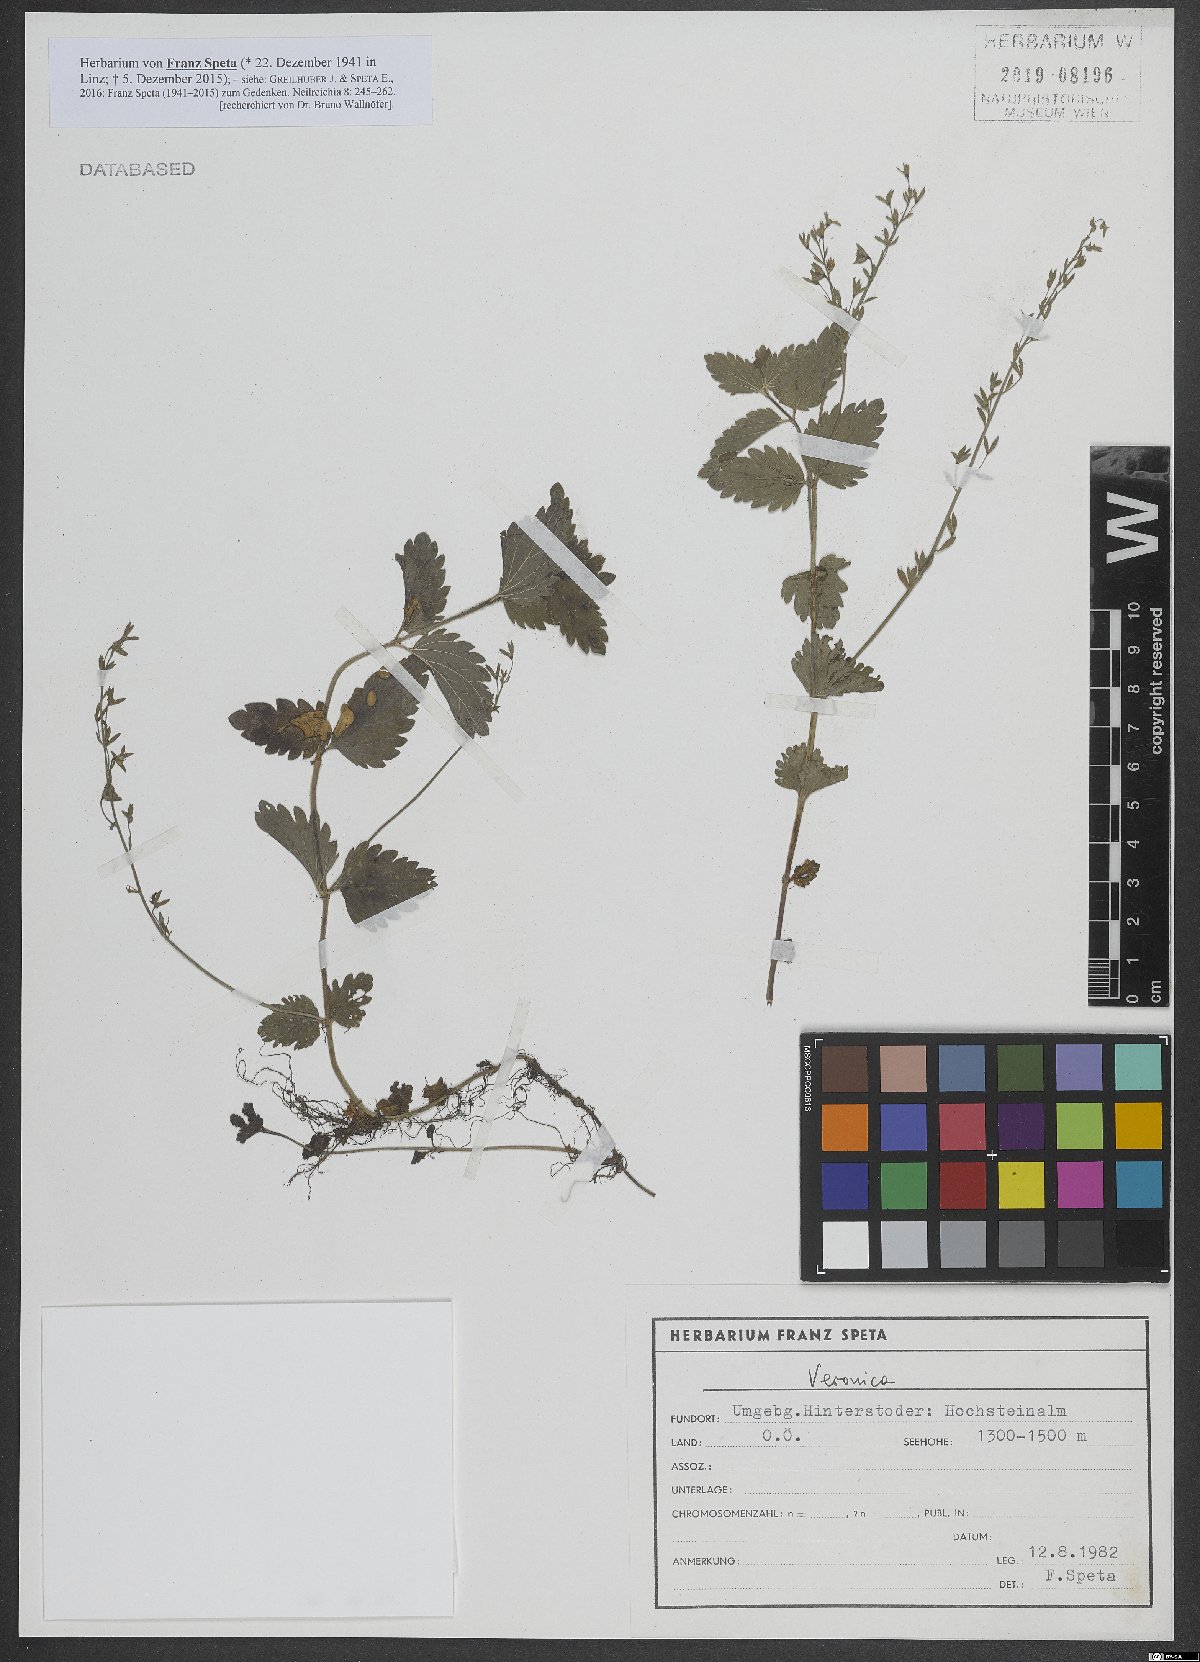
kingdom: Plantae
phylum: Tracheophyta
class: Magnoliopsida
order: Lamiales
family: Plantaginaceae
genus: Veronica
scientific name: Veronica
